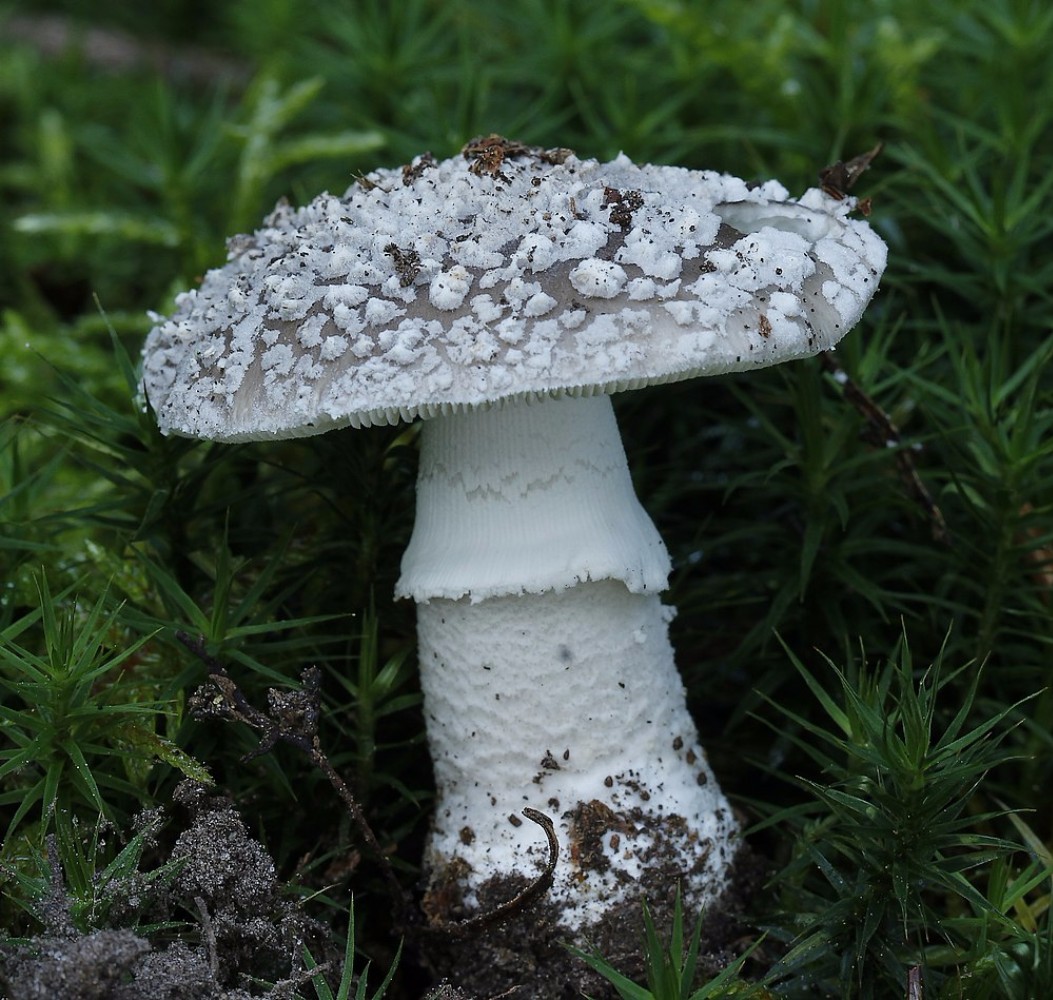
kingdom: Fungi
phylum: Basidiomycota
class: Agaricomycetes
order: Agaricales
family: Amanitaceae
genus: Amanita
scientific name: Amanita
